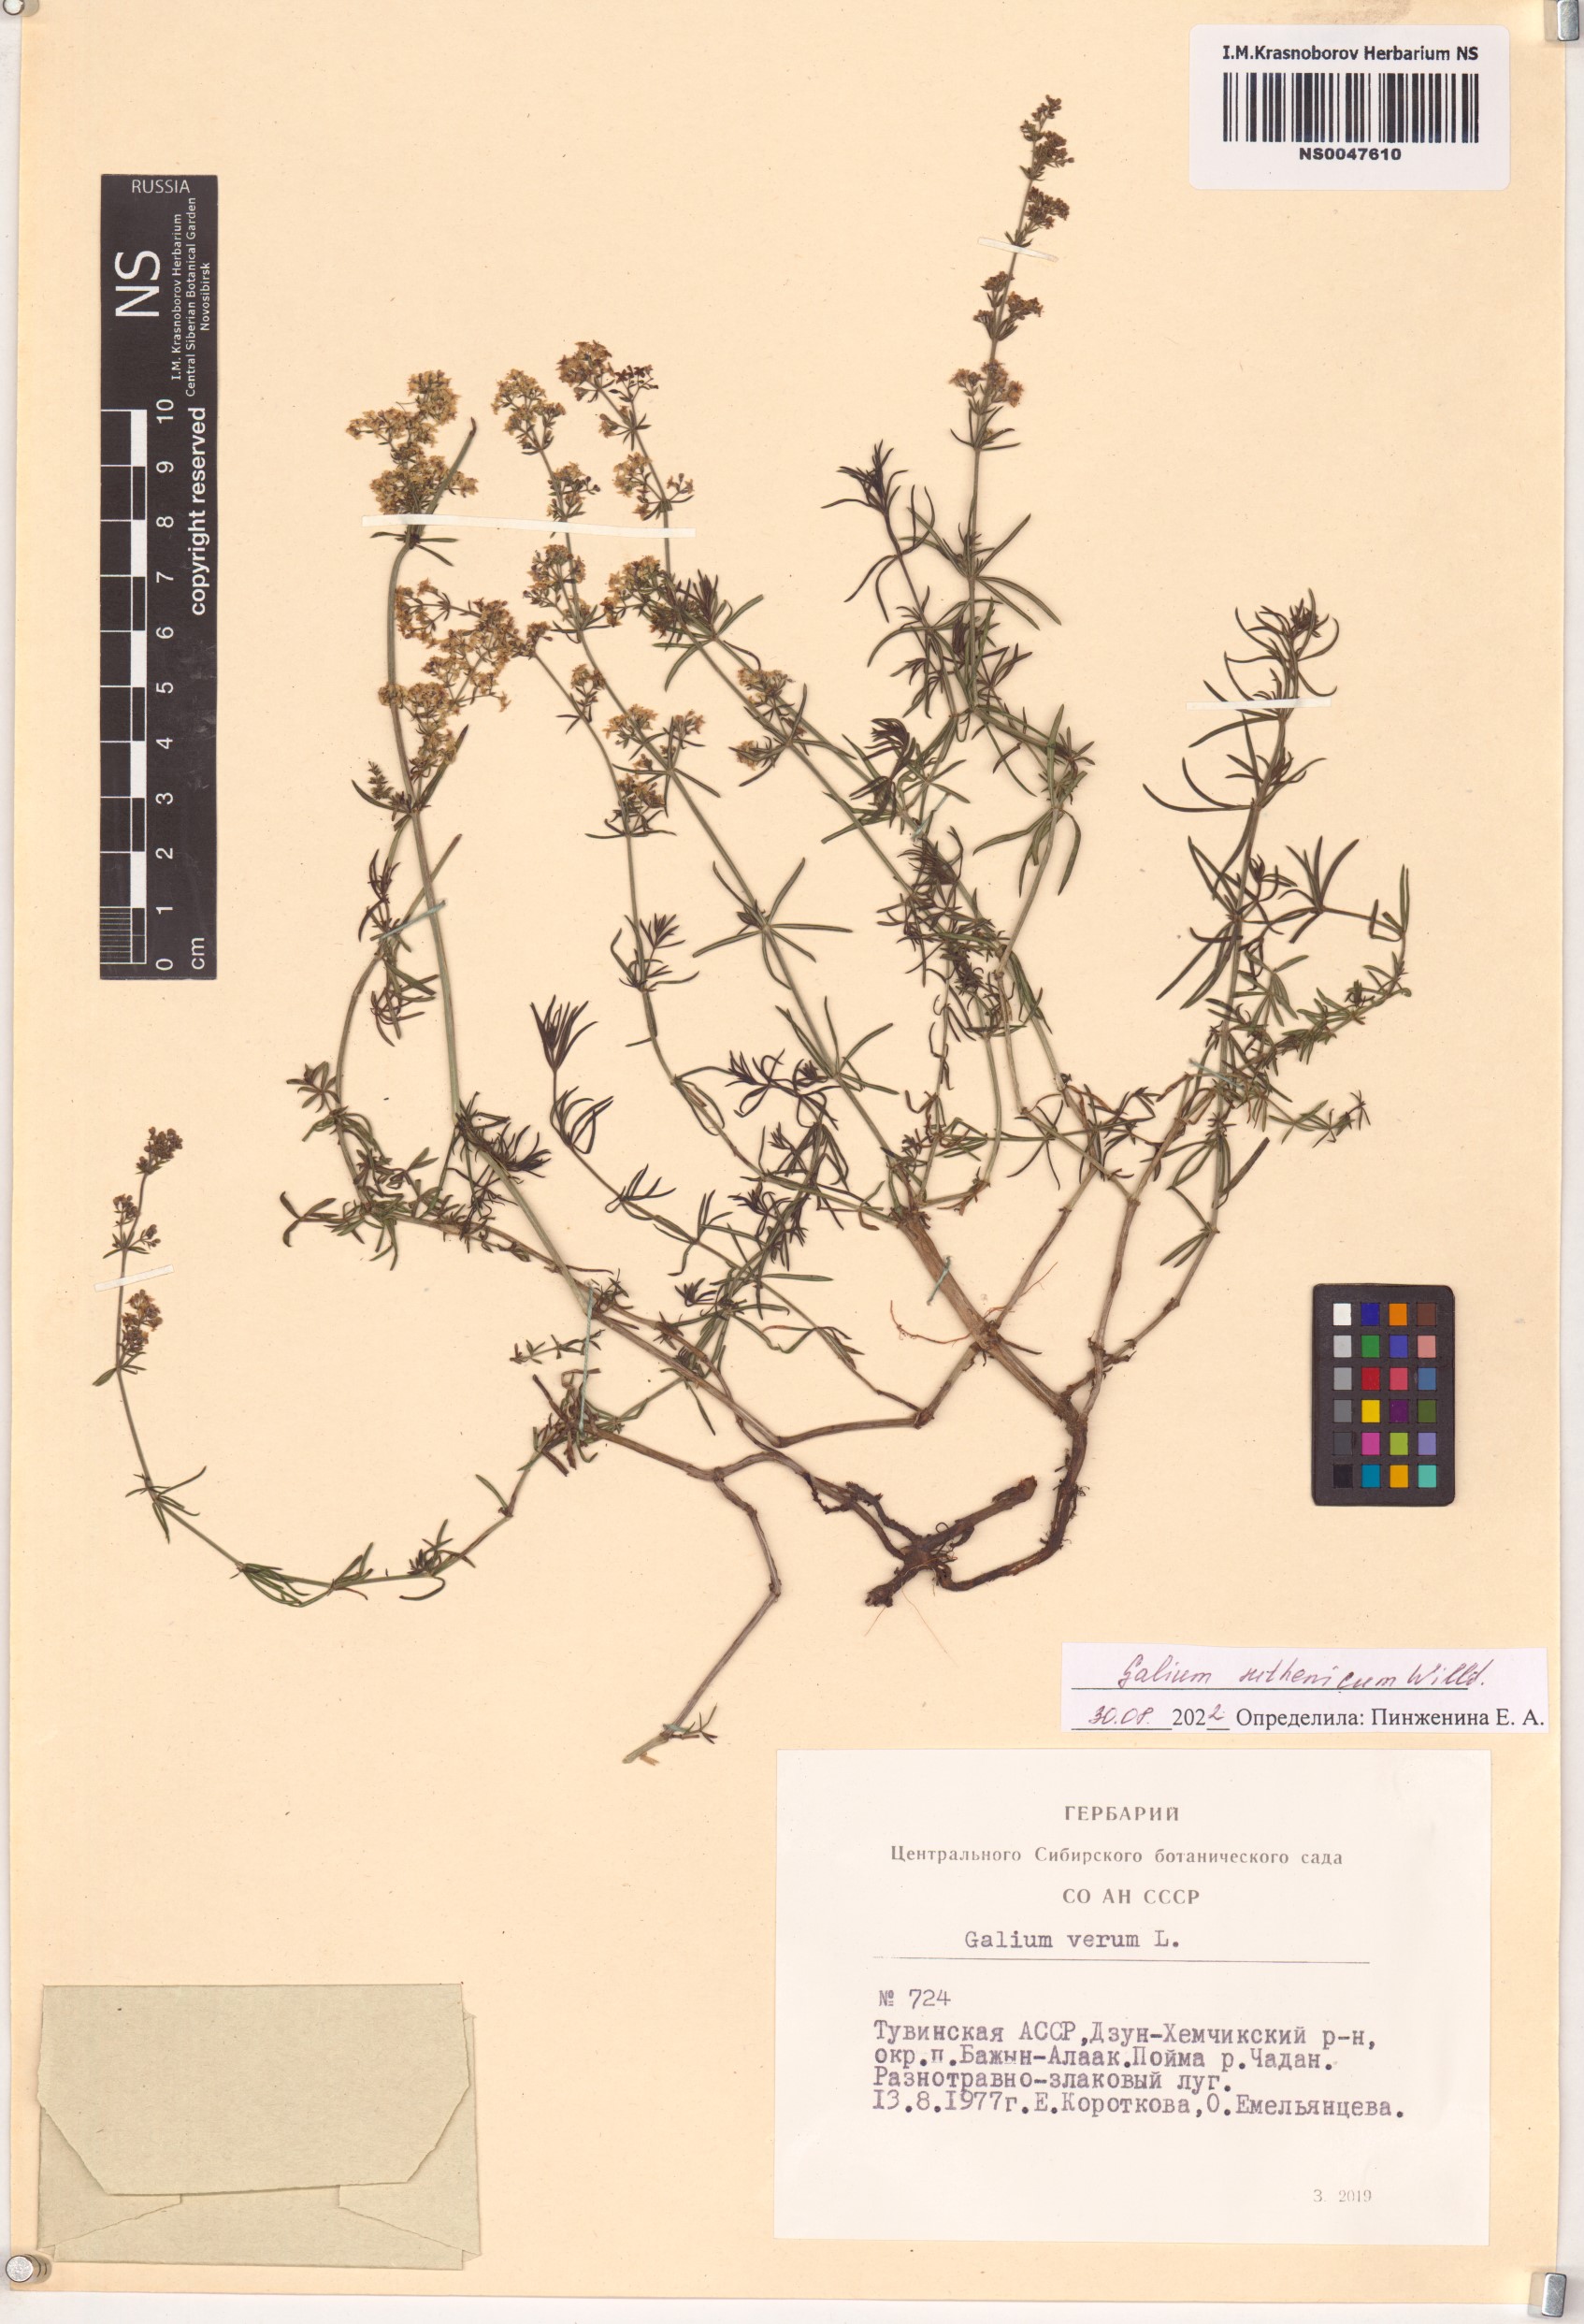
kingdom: Plantae
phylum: Tracheophyta
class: Magnoliopsida
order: Gentianales
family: Rubiaceae
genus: Galium
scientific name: Galium verum
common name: Lady's bedstraw
